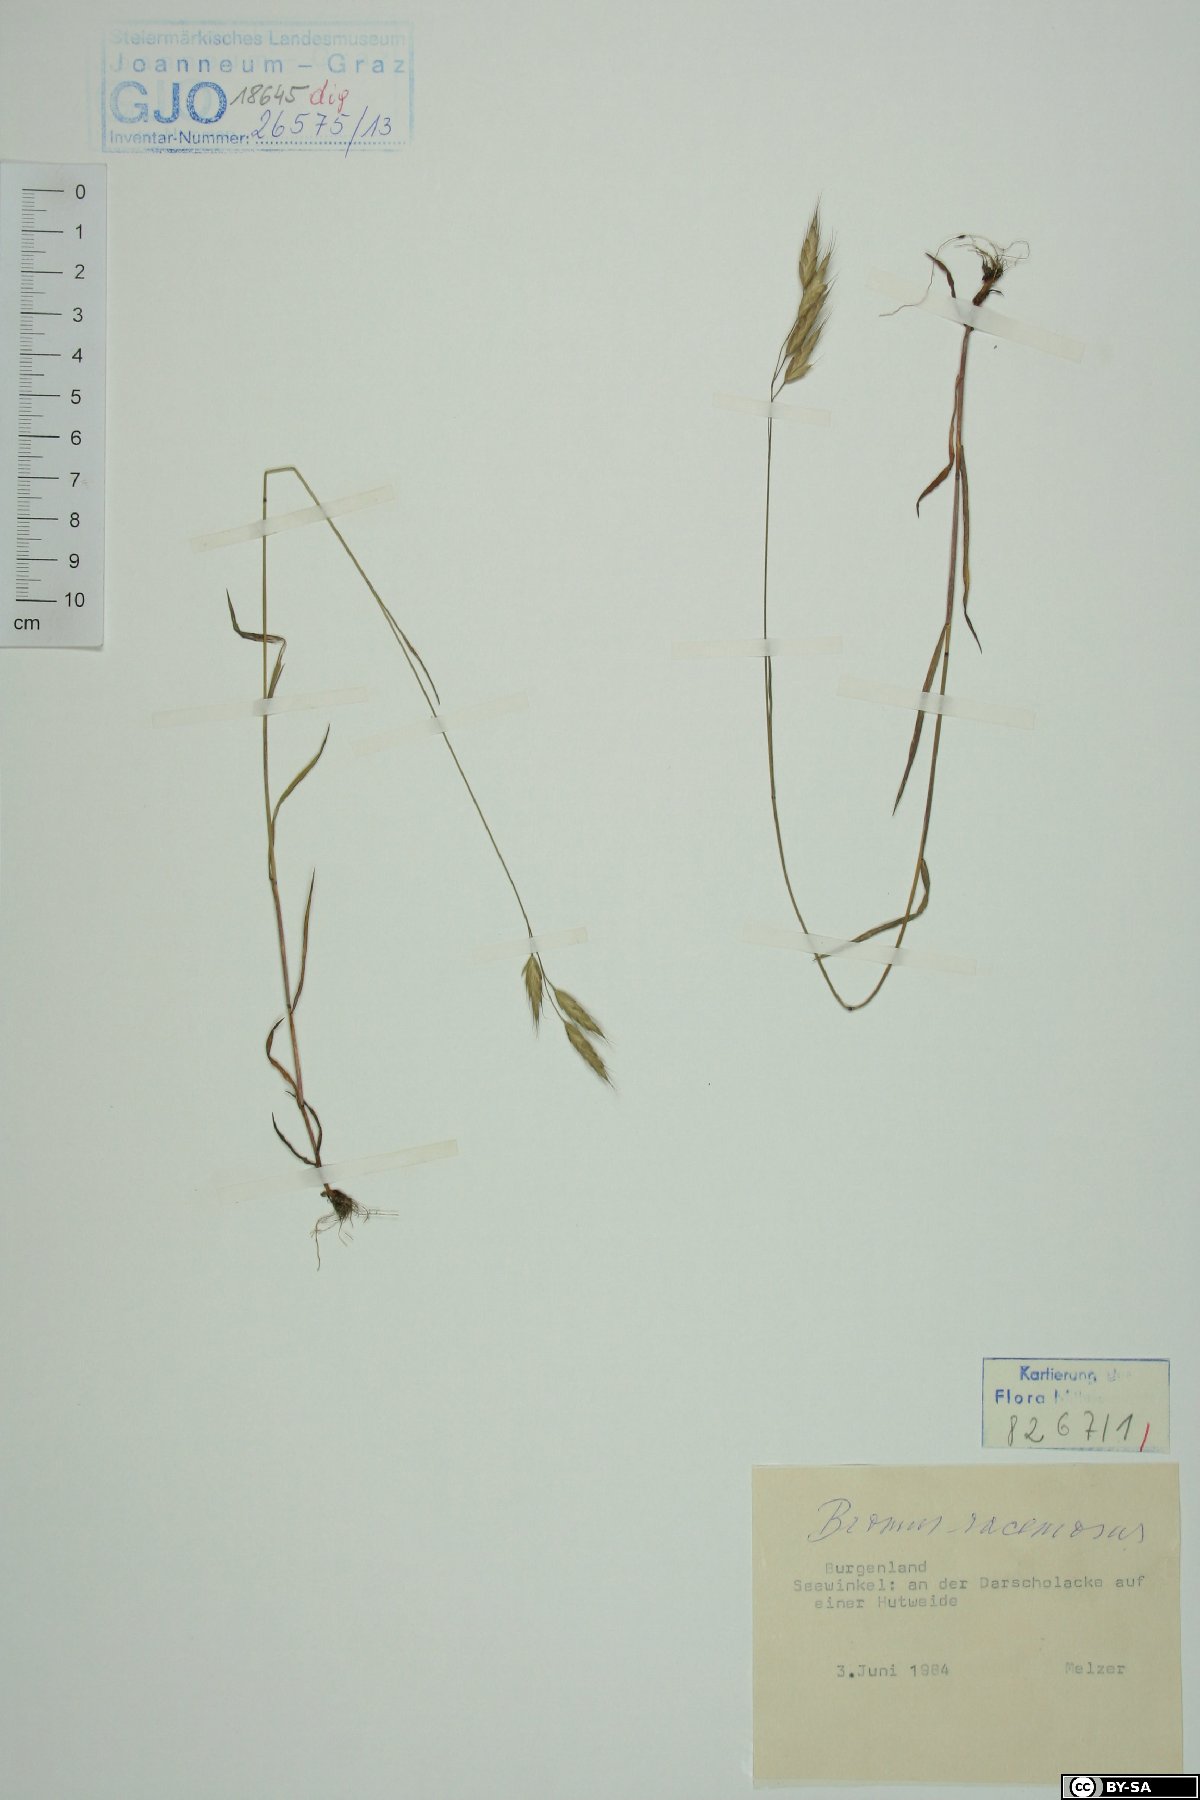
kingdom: Plantae
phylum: Tracheophyta
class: Liliopsida
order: Poales
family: Poaceae
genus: Bromus
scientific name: Bromus racemosus
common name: Bald brome
